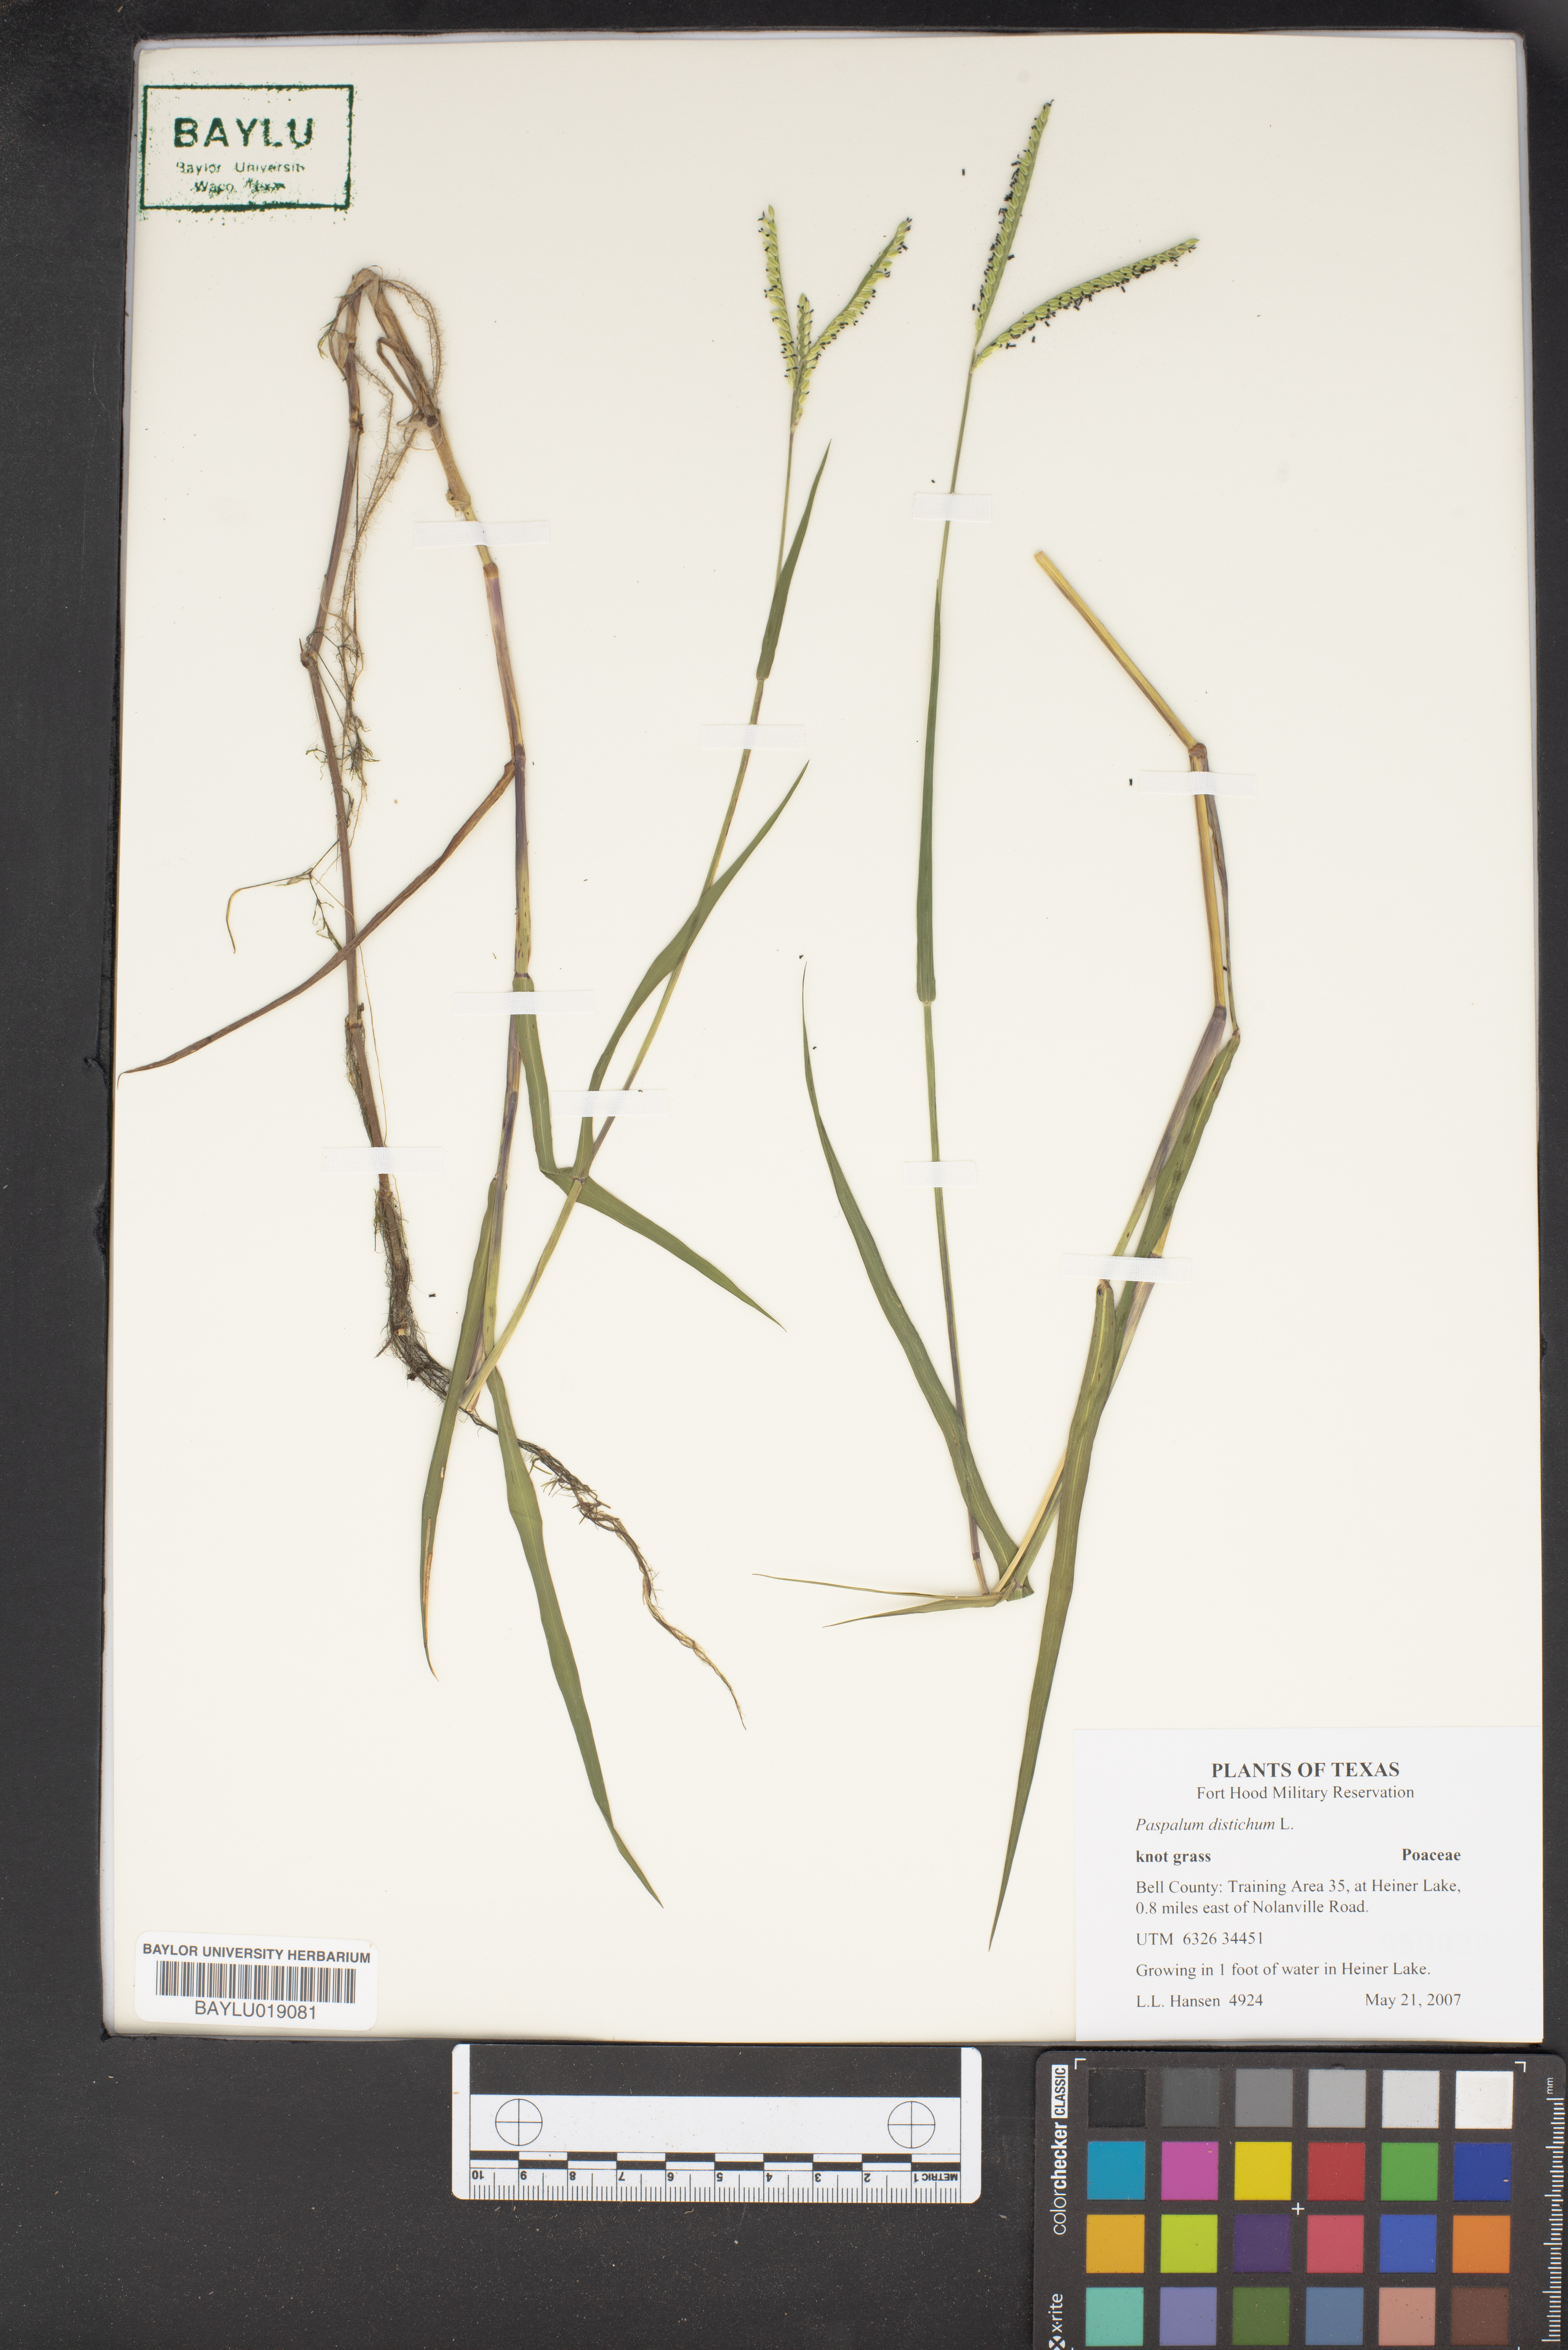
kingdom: Plantae
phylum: Tracheophyta
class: Liliopsida
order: Poales
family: Poaceae
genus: Paspalum
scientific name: Paspalum distichum
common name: Knotgrass
